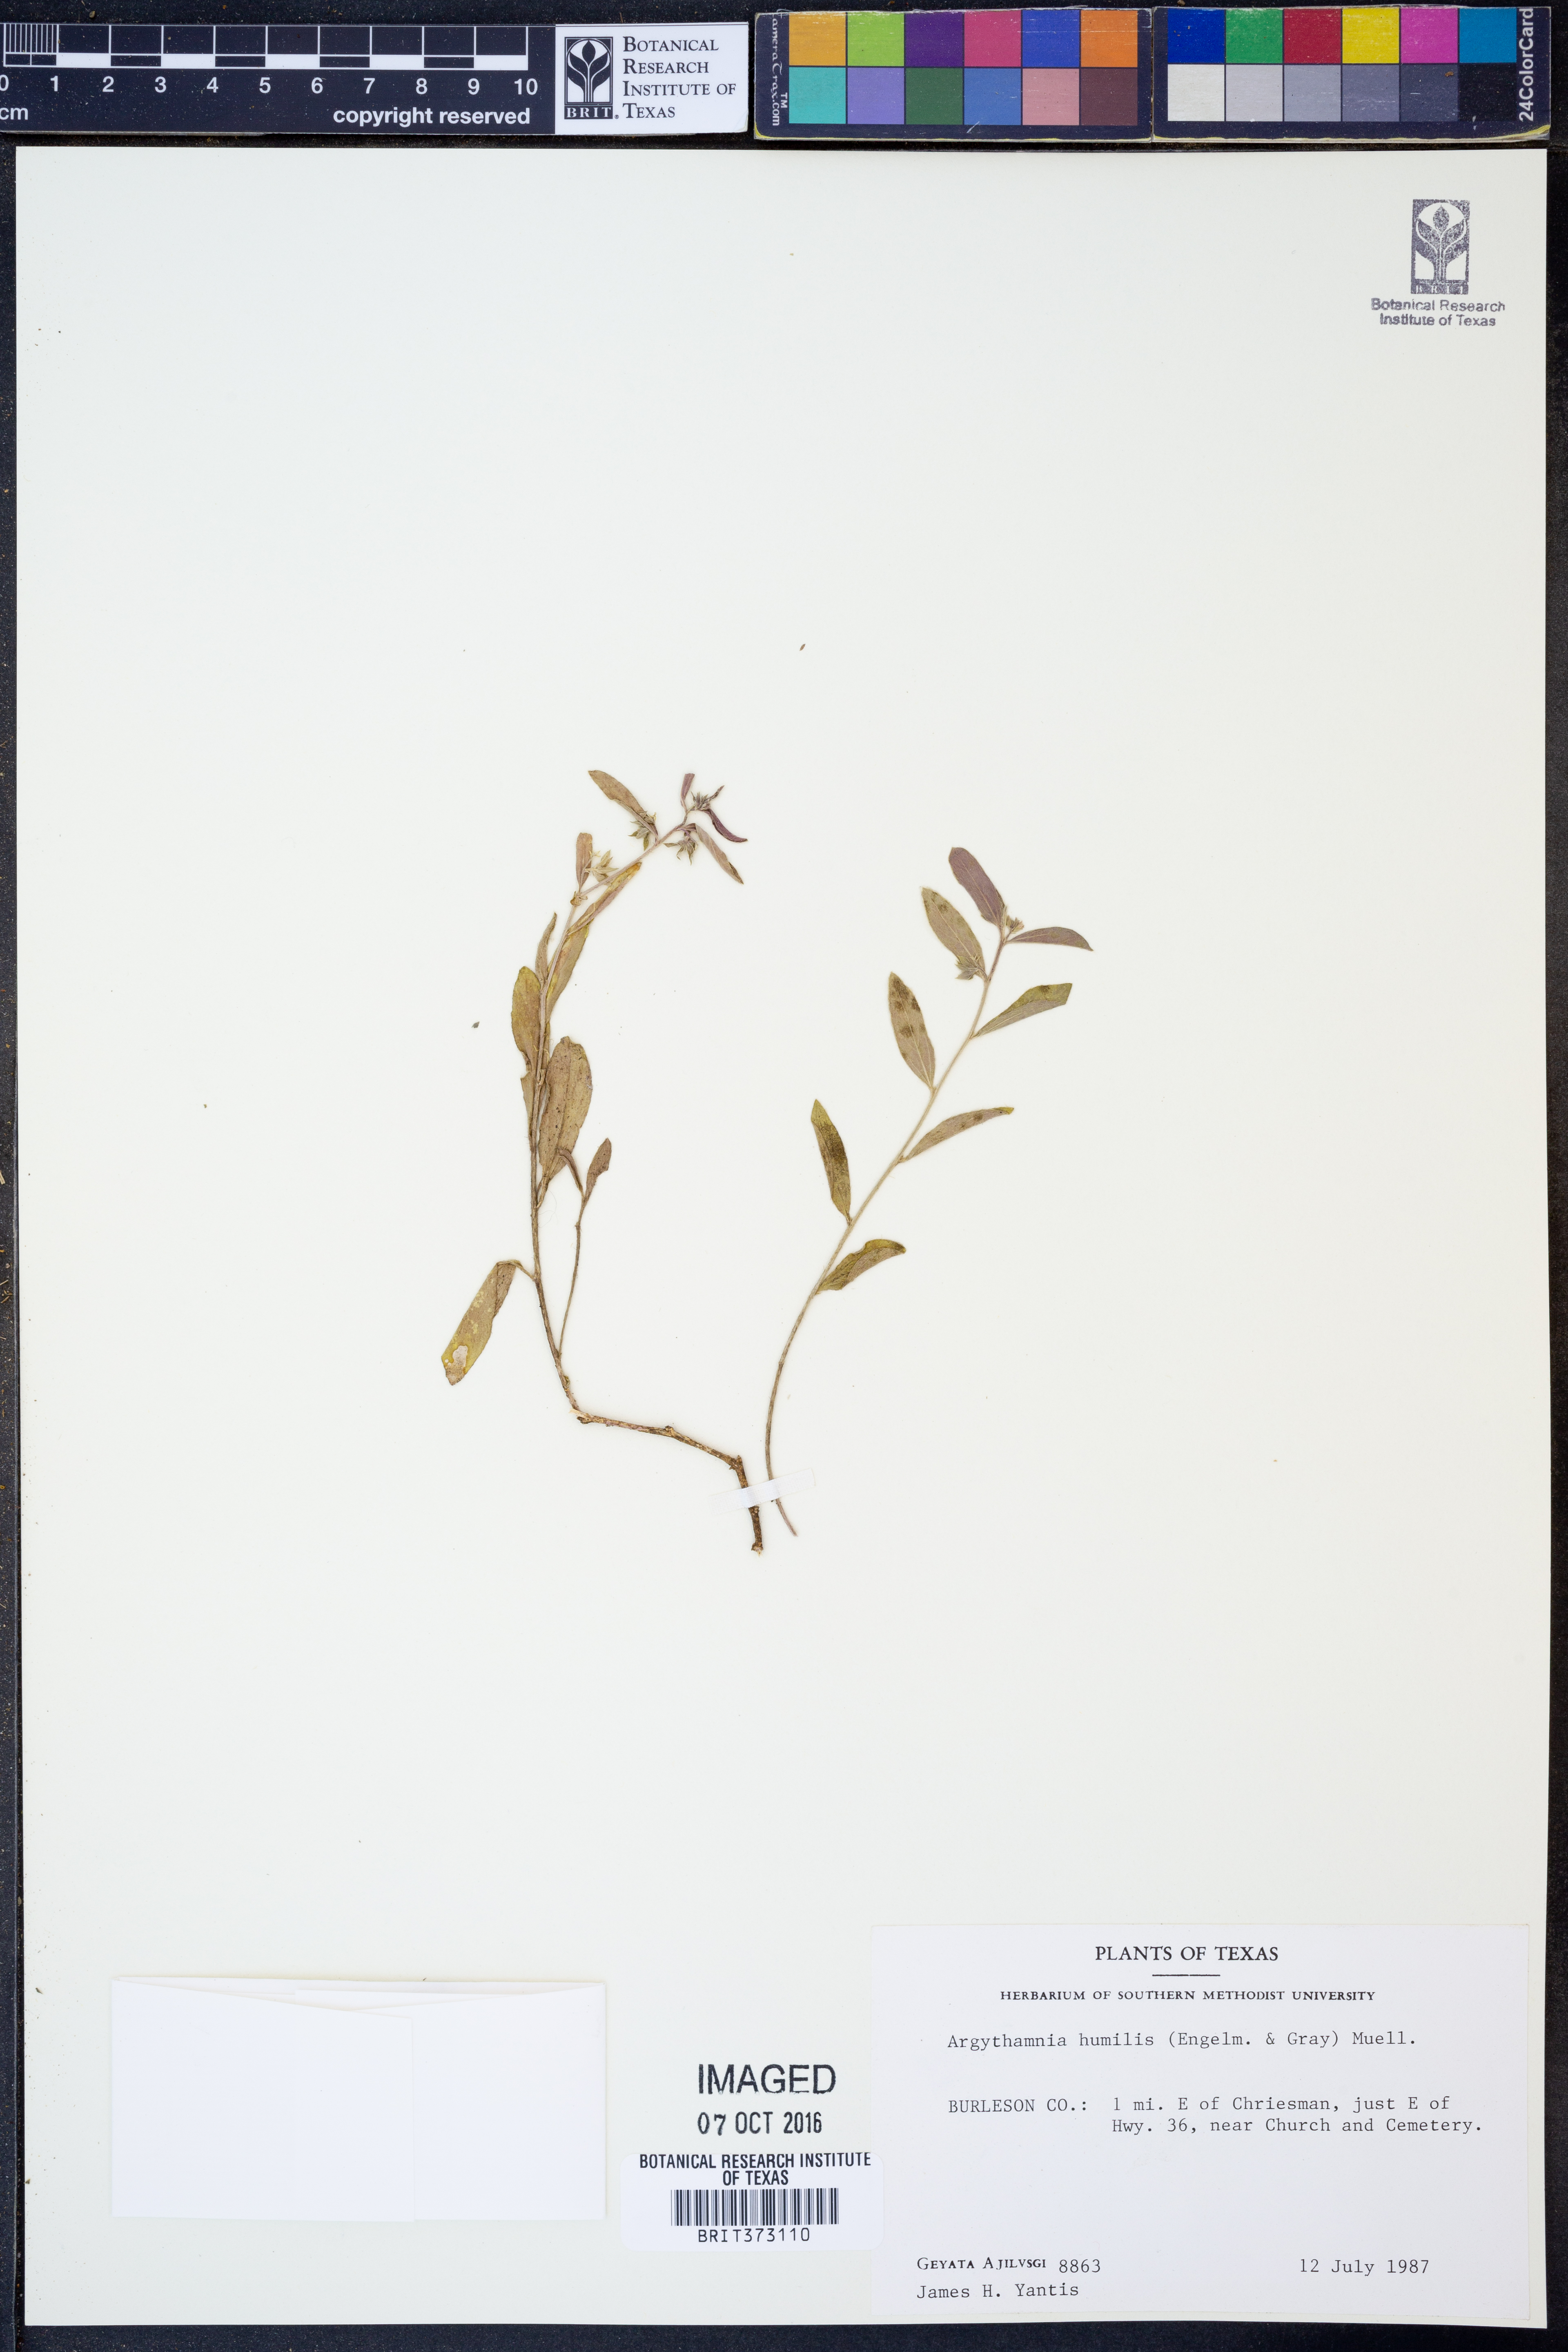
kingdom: Plantae
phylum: Tracheophyta
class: Magnoliopsida
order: Malpighiales
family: Euphorbiaceae
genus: Ditaxis
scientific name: Ditaxis humilis
